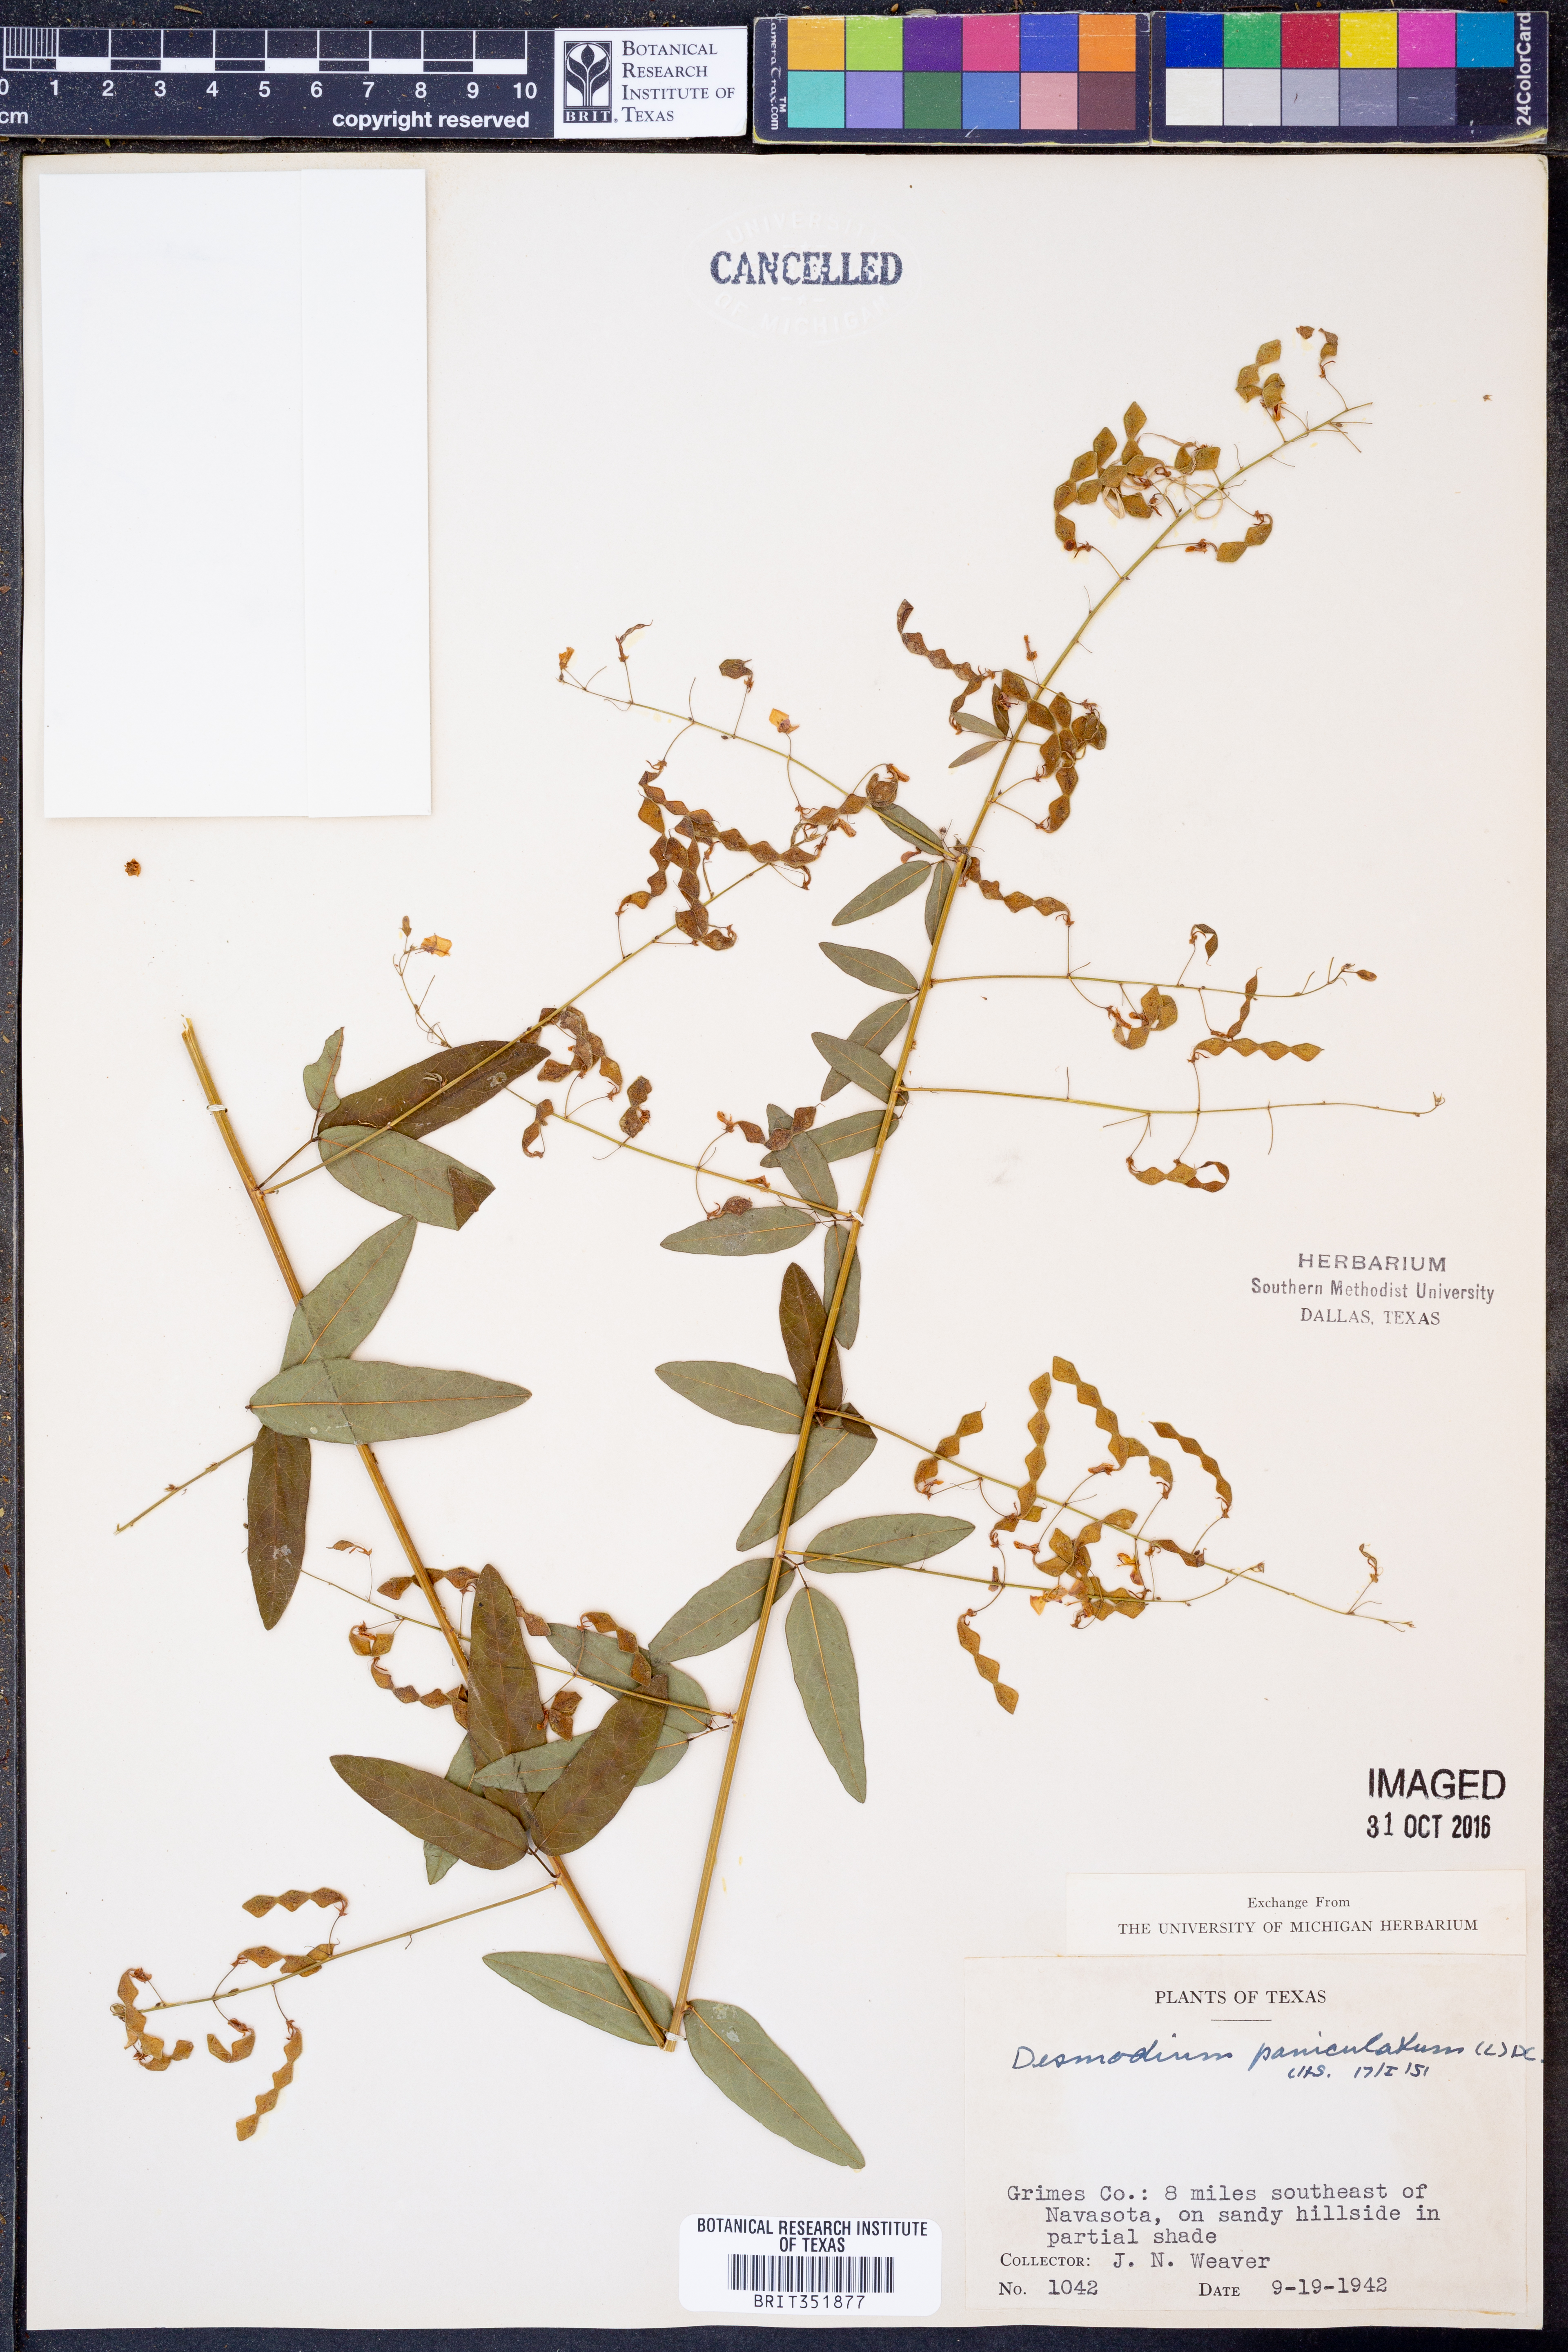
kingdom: Plantae
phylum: Tracheophyta
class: Magnoliopsida
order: Fabales
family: Fabaceae
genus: Desmodium
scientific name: Desmodium paniculatum
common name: Panicled tick-clover
